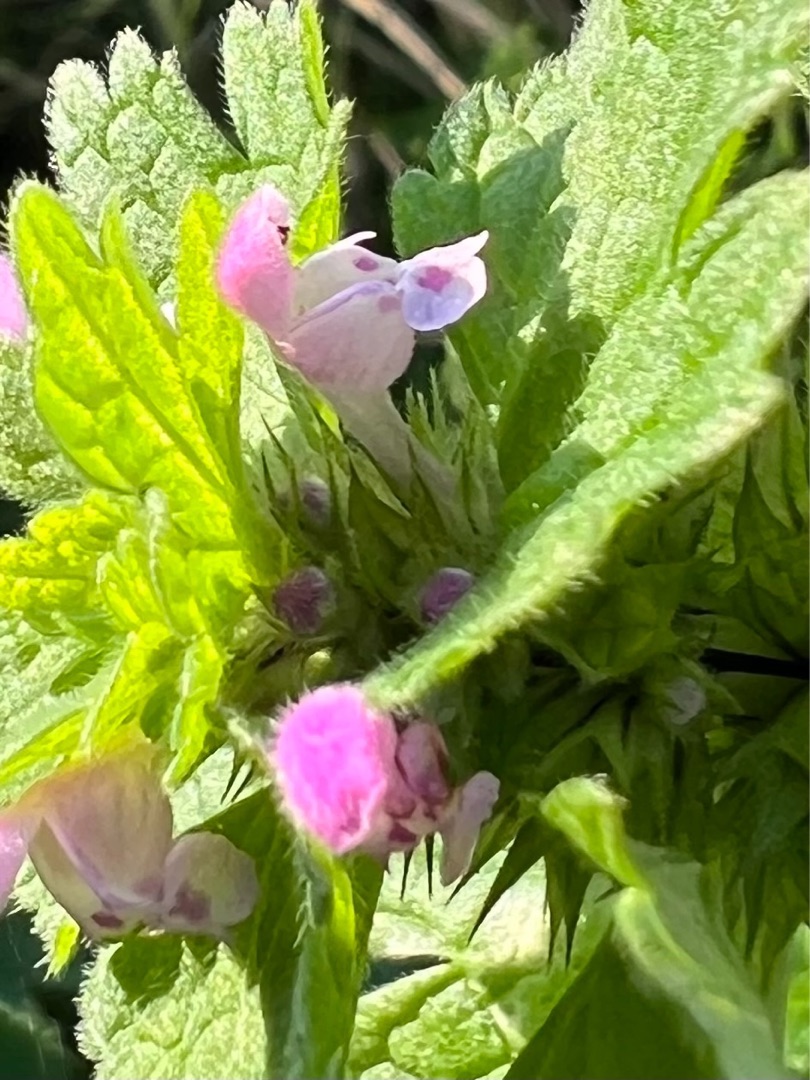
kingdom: Plantae
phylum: Tracheophyta
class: Magnoliopsida
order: Lamiales
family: Lamiaceae
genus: Lamium
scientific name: Lamium hybridum
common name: Fliget tvetand
